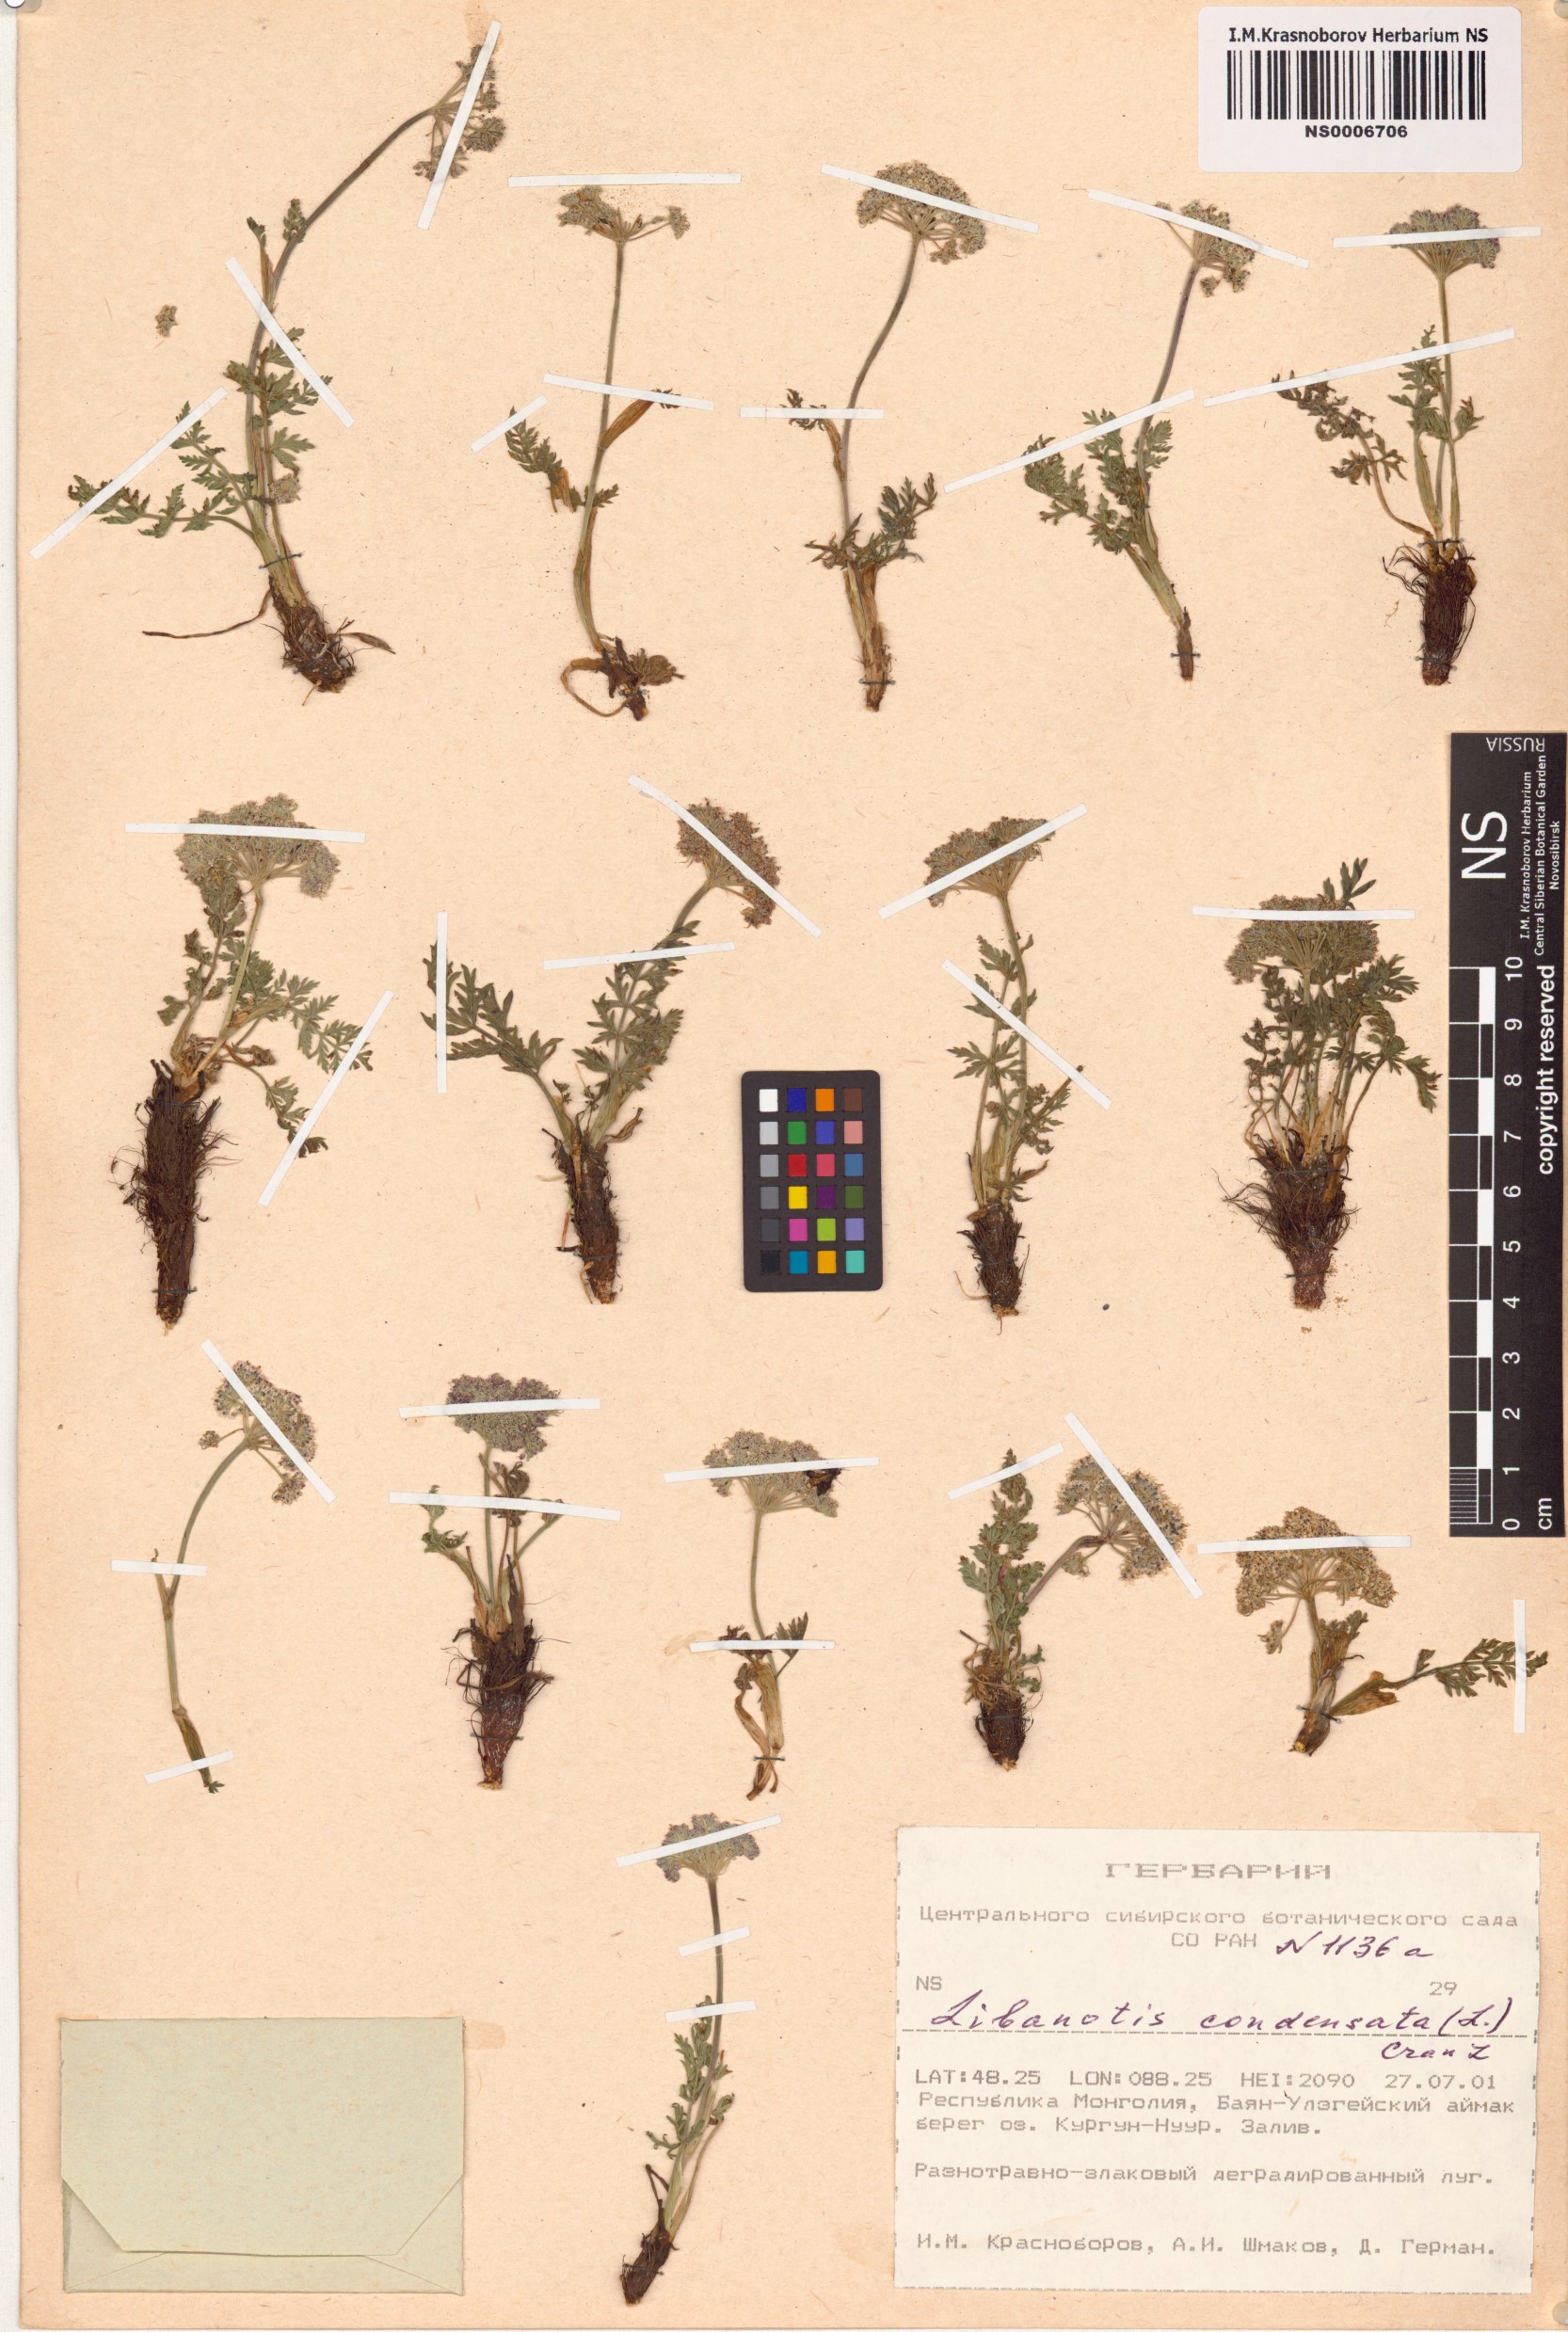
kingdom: Plantae
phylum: Tracheophyta
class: Magnoliopsida
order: Apiales
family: Apiaceae
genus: Seseli
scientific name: Seseli condensatum
